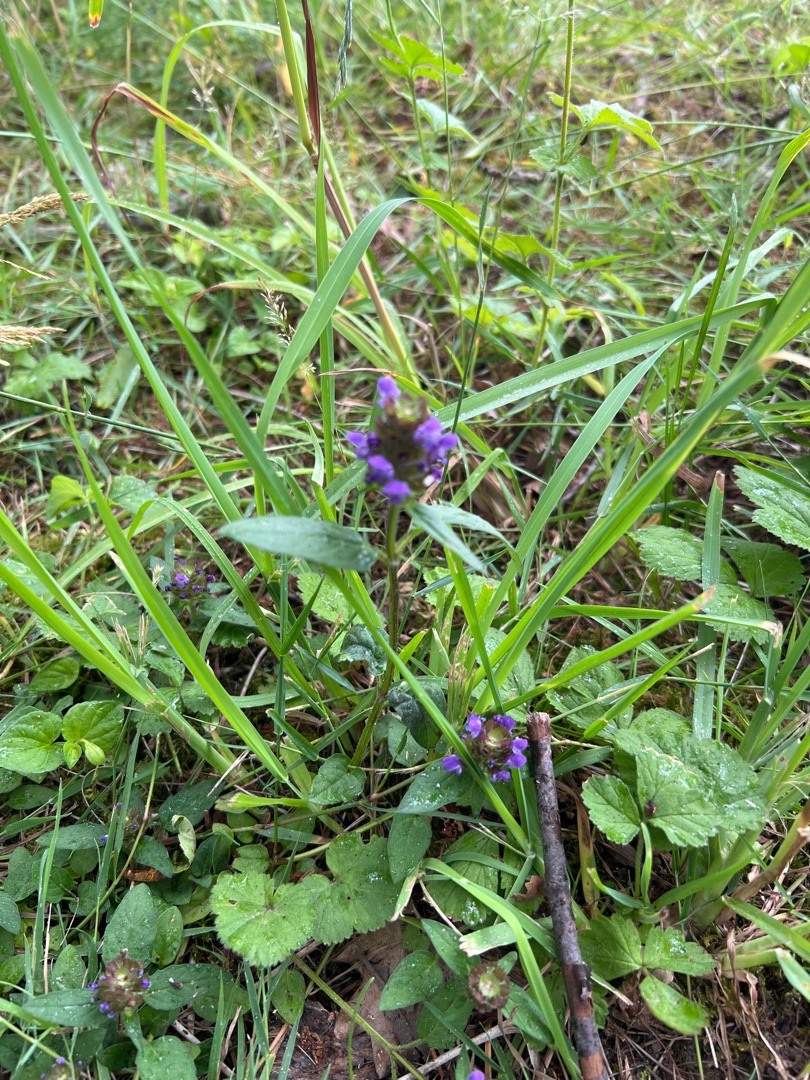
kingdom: Plantae
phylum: Tracheophyta
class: Magnoliopsida
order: Lamiales
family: Lamiaceae
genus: Prunella
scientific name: Prunella vulgaris
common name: Almindelig brunelle
